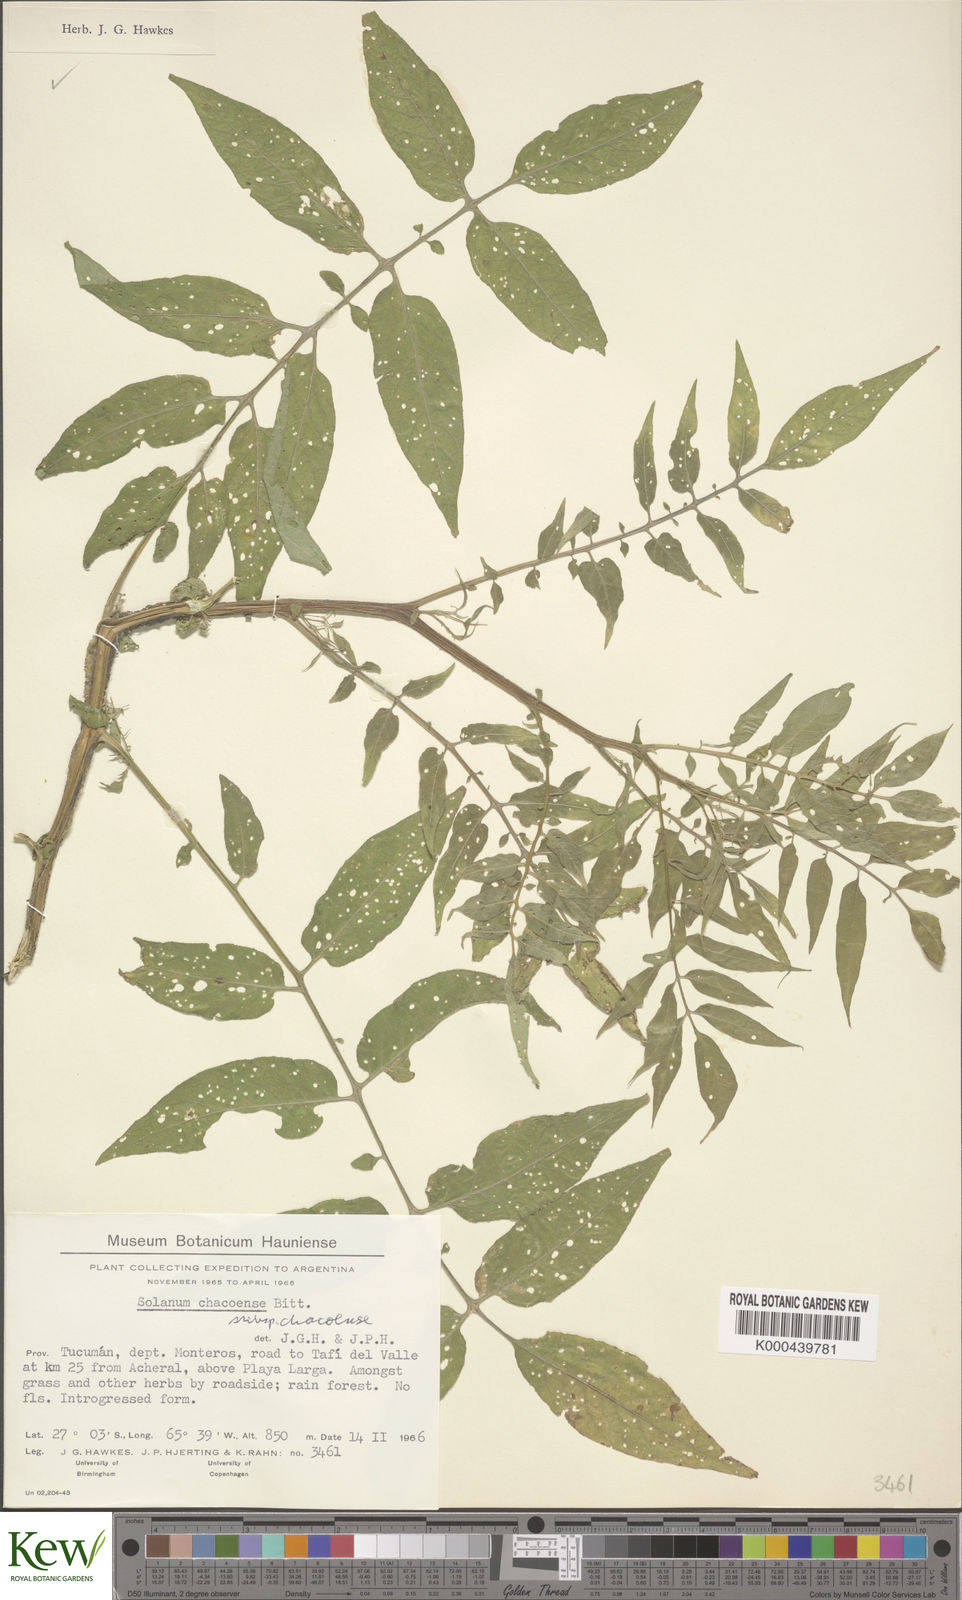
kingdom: Plantae
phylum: Tracheophyta
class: Magnoliopsida
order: Solanales
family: Solanaceae
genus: Solanum
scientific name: Solanum chacoense
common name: Chaco potato
